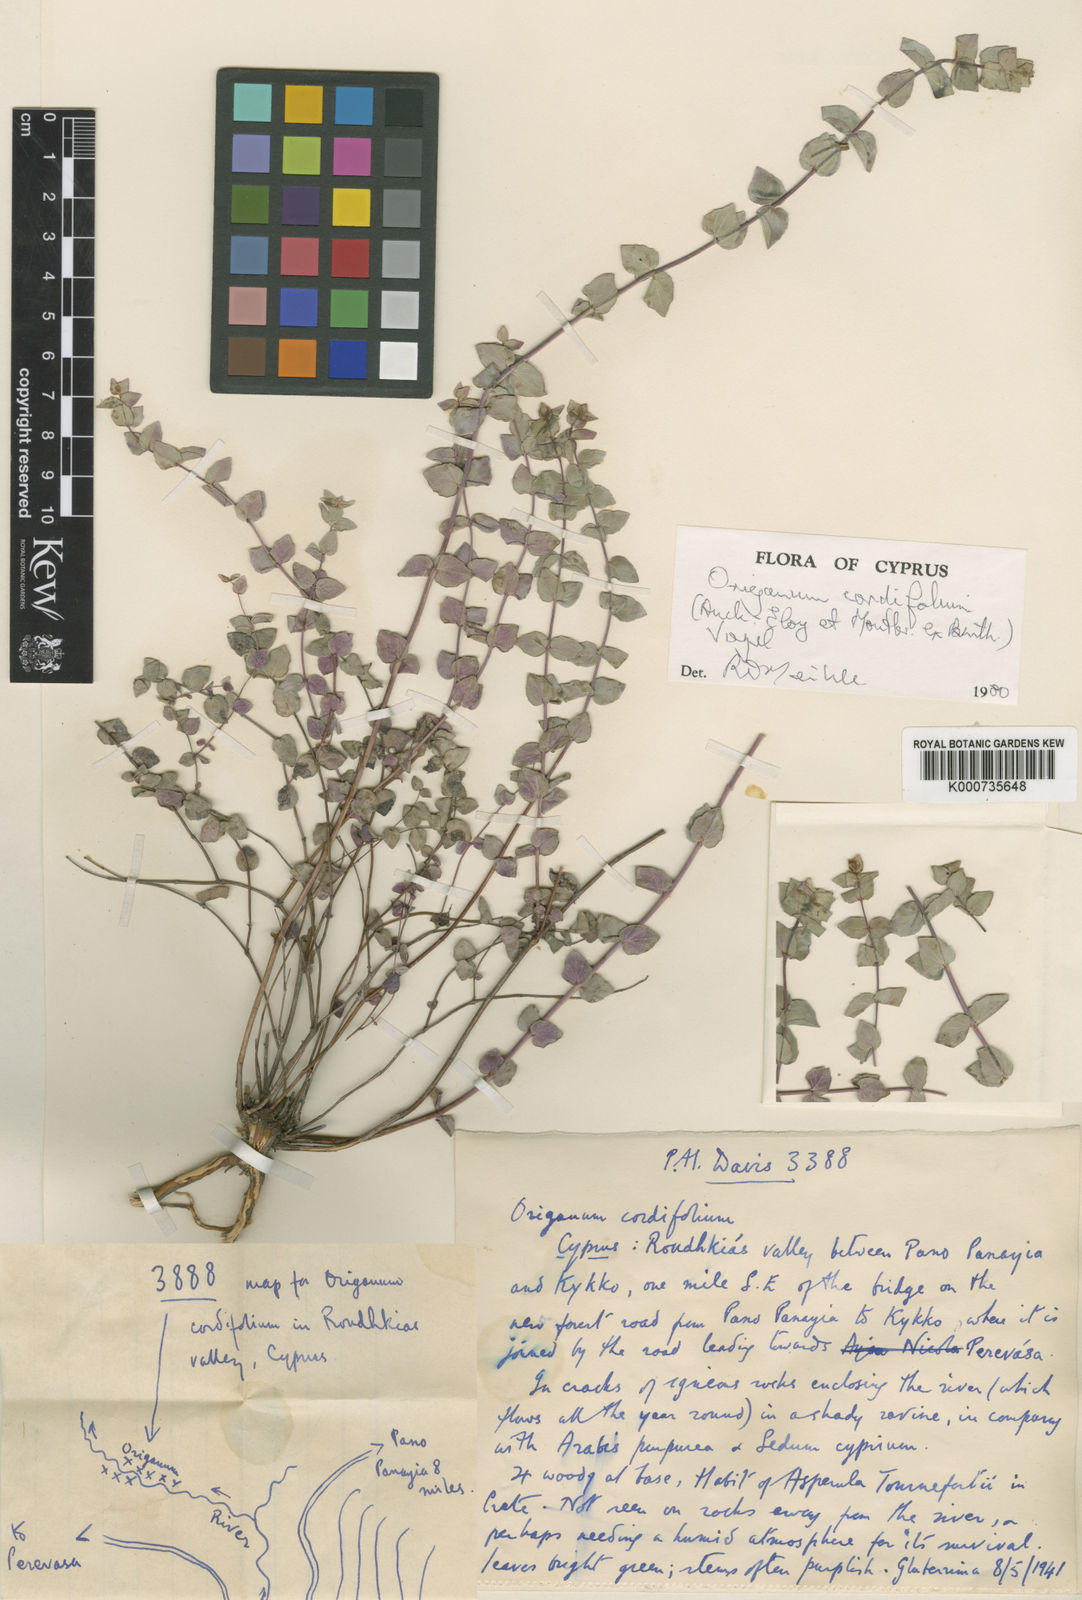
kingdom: Plantae
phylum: Tracheophyta
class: Magnoliopsida
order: Lamiales
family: Lamiaceae
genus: Origanum
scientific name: Origanum majorana
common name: Sweet marjoram
